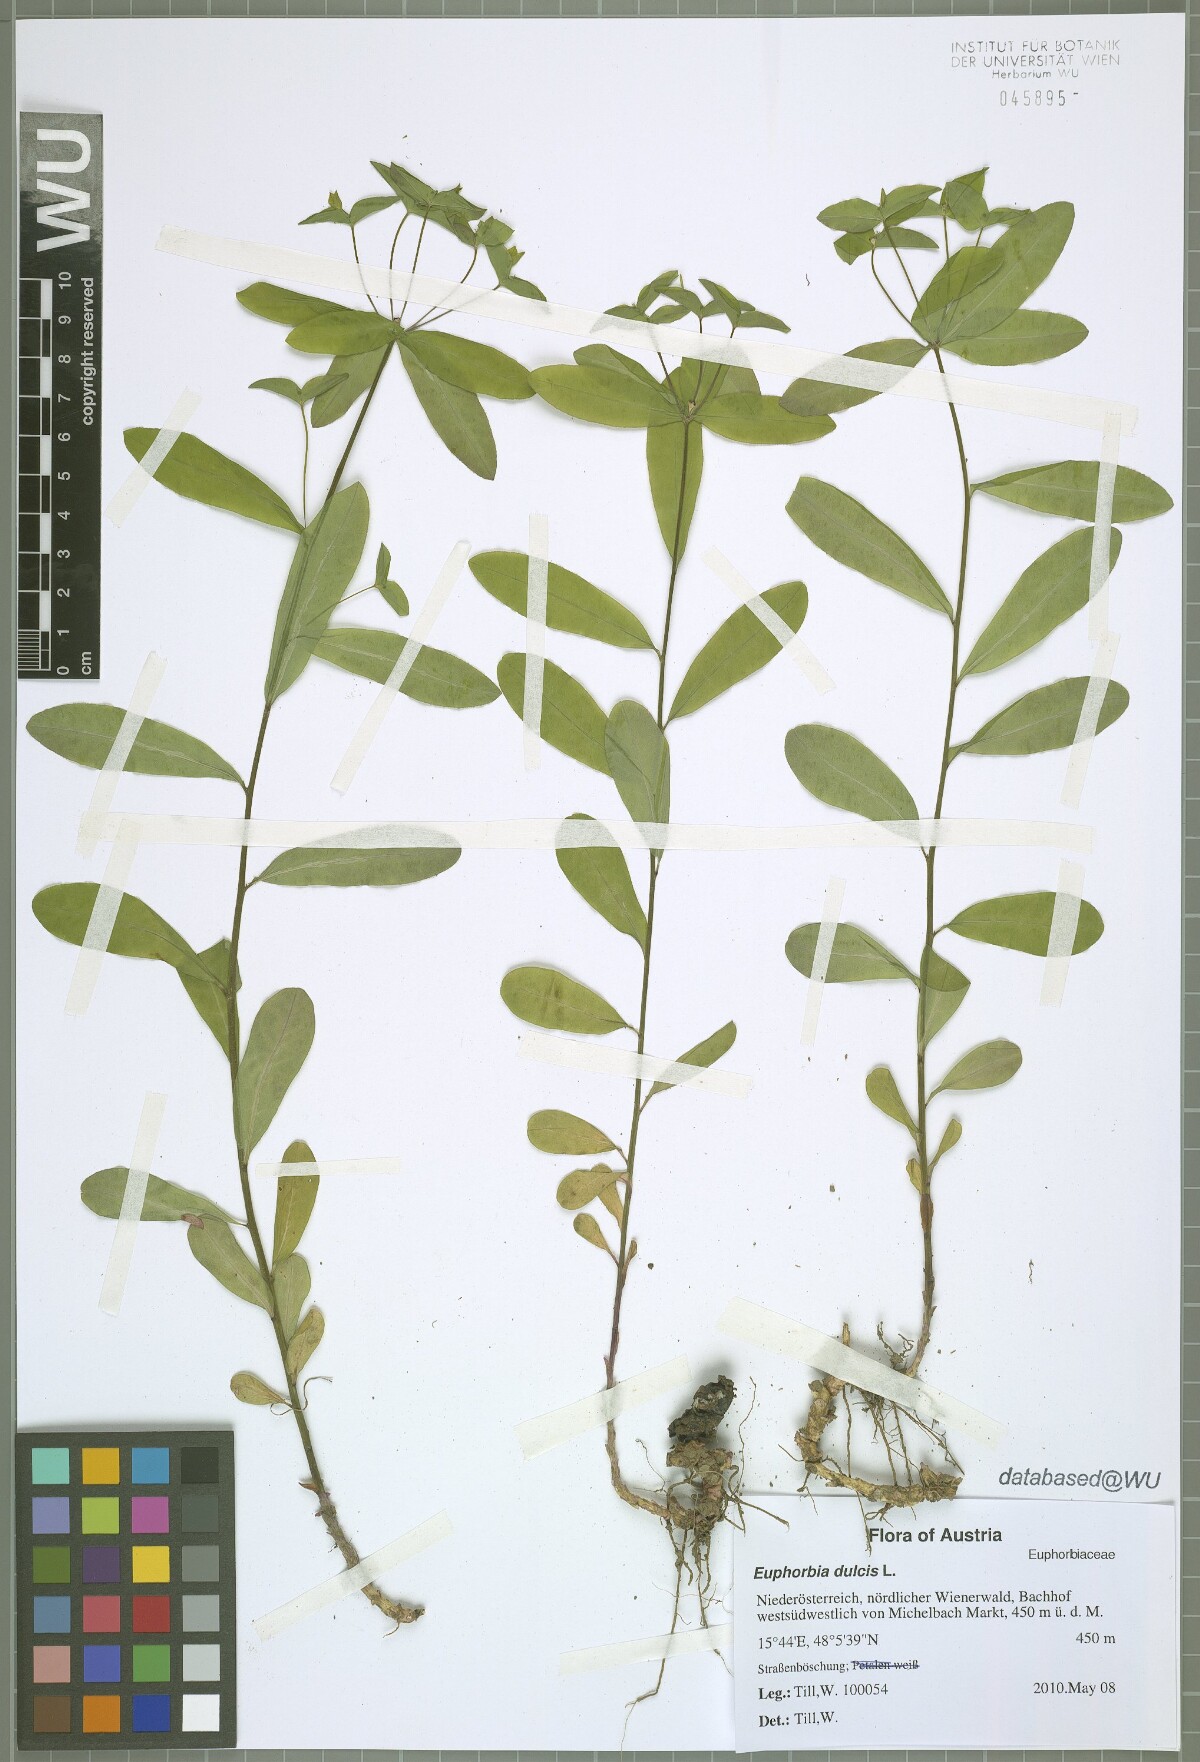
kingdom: Plantae
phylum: Tracheophyta
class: Magnoliopsida
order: Malpighiales
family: Euphorbiaceae
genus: Euphorbia
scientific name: Euphorbia dulcis
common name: Sweet spurge
